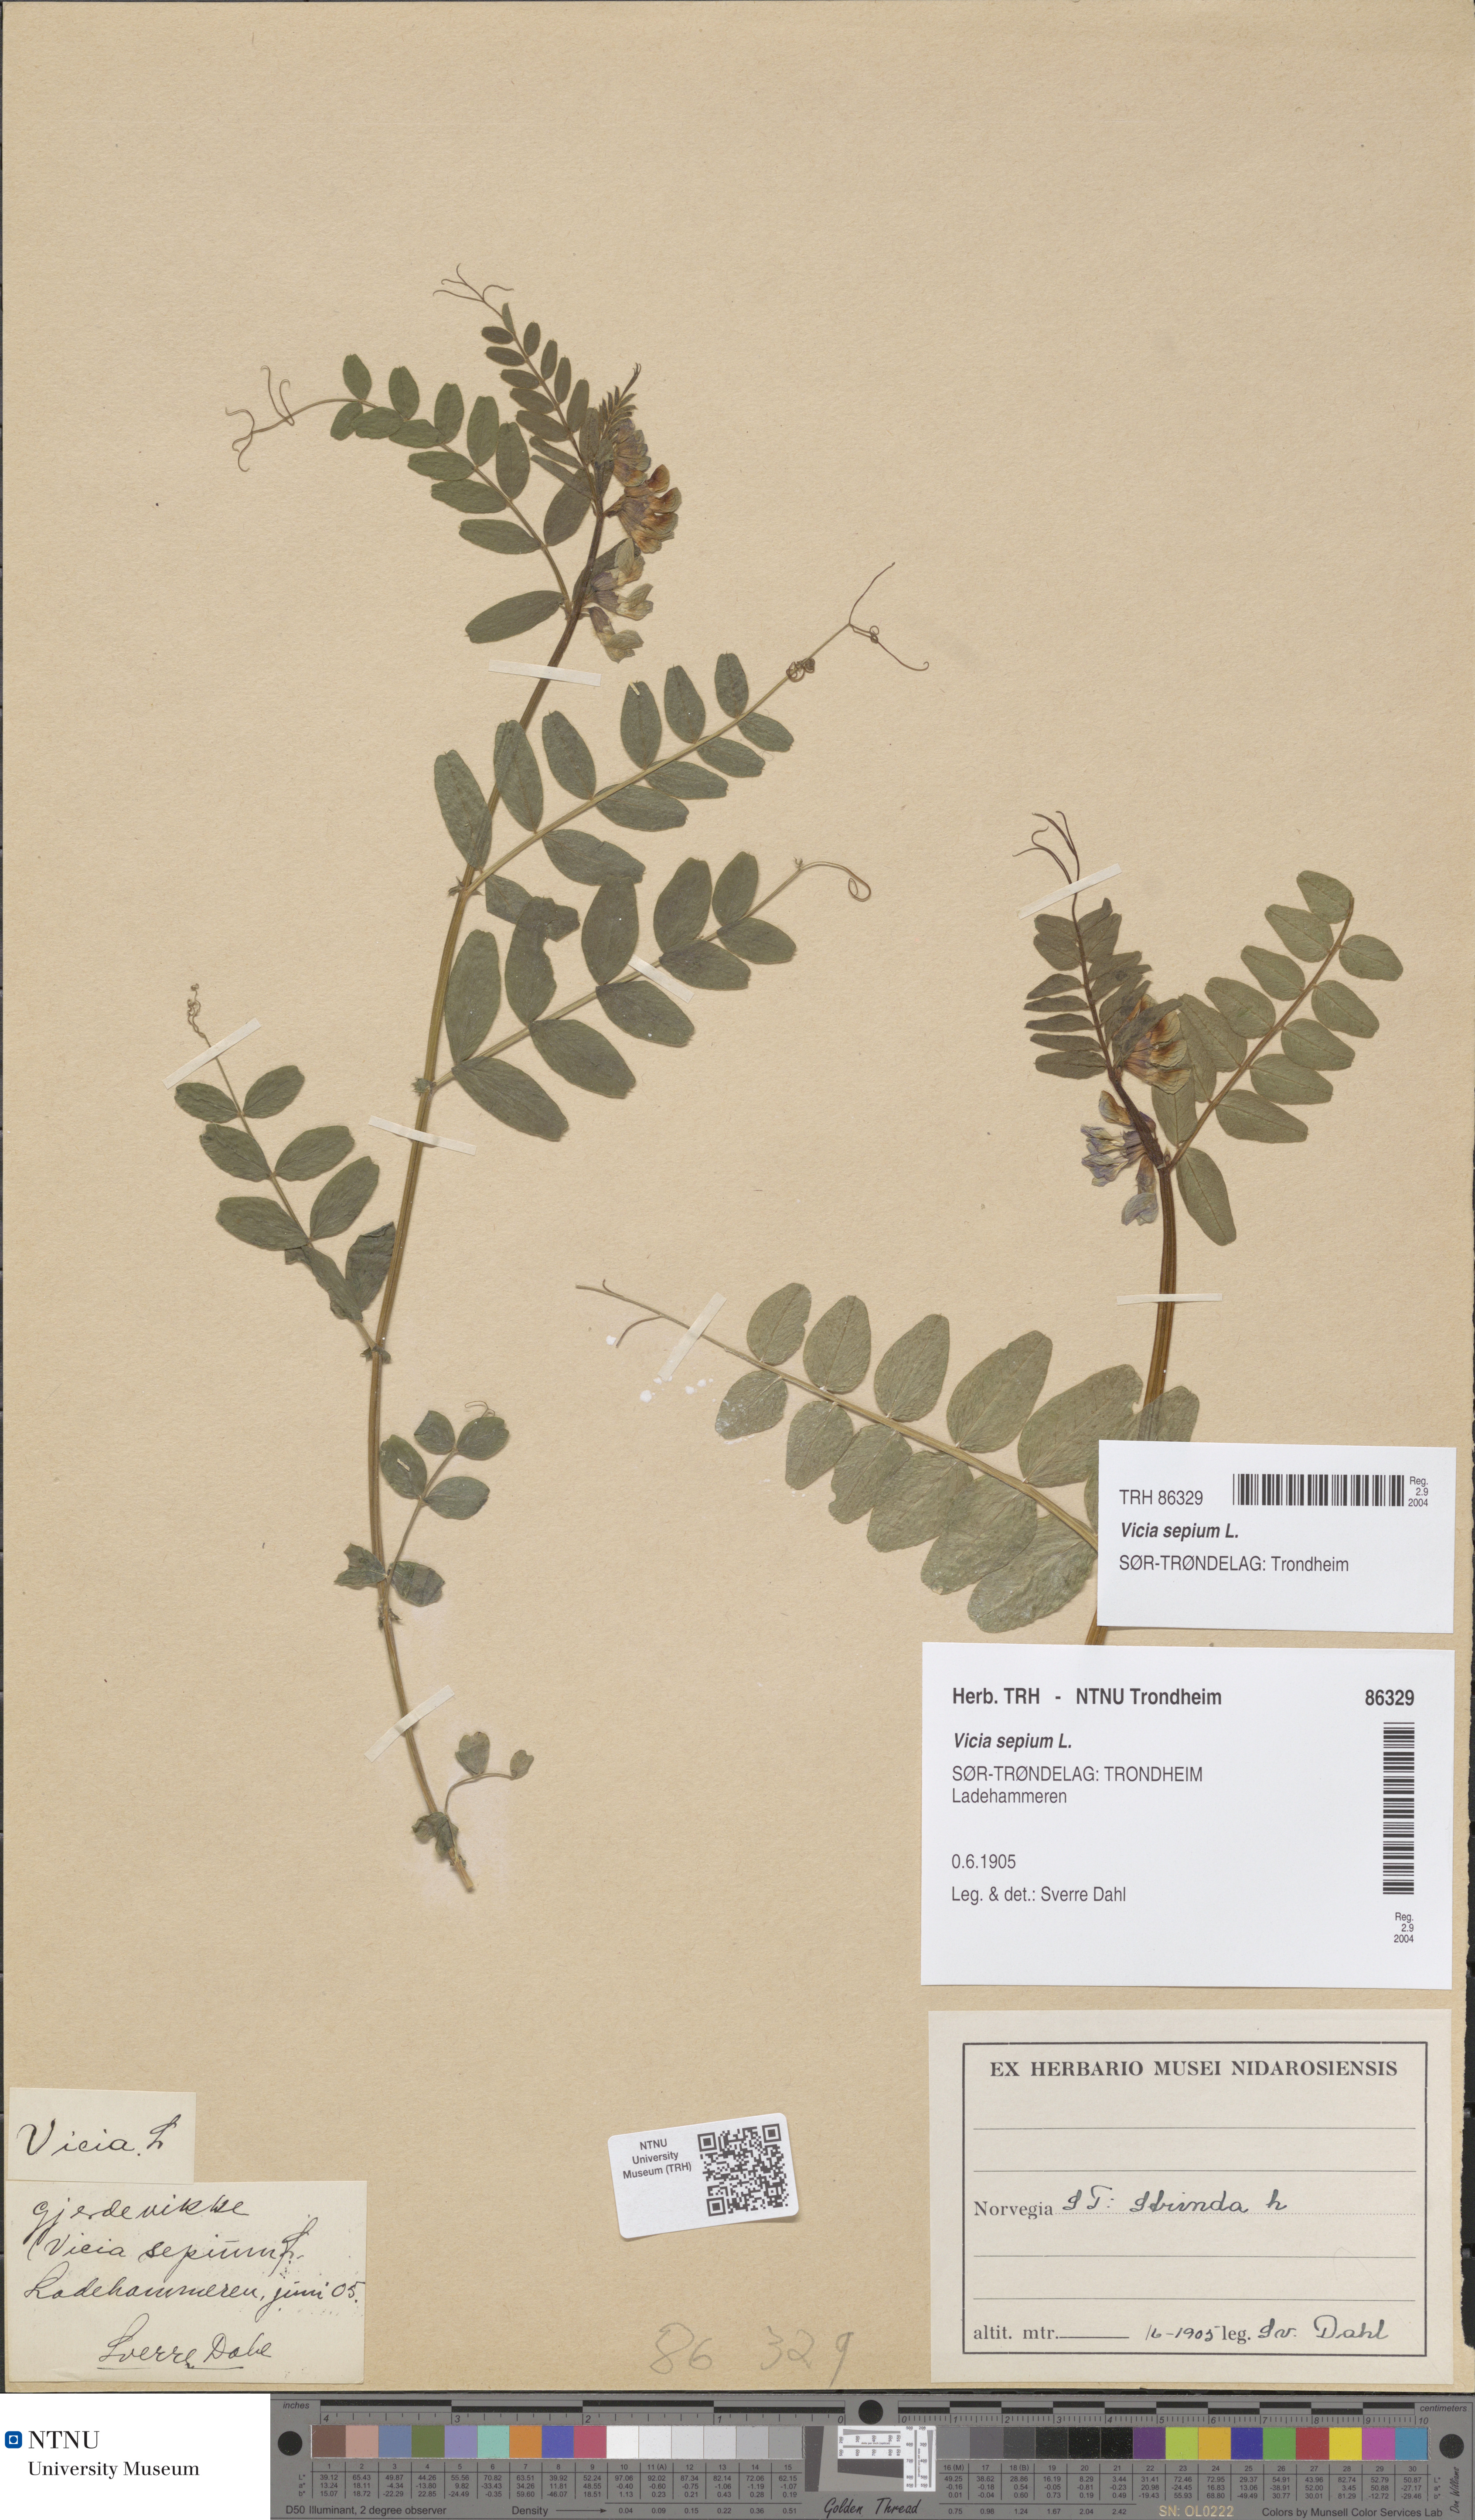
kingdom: Plantae
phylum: Tracheophyta
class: Magnoliopsida
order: Fabales
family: Fabaceae
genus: Vicia
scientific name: Vicia sepium
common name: Bush vetch
